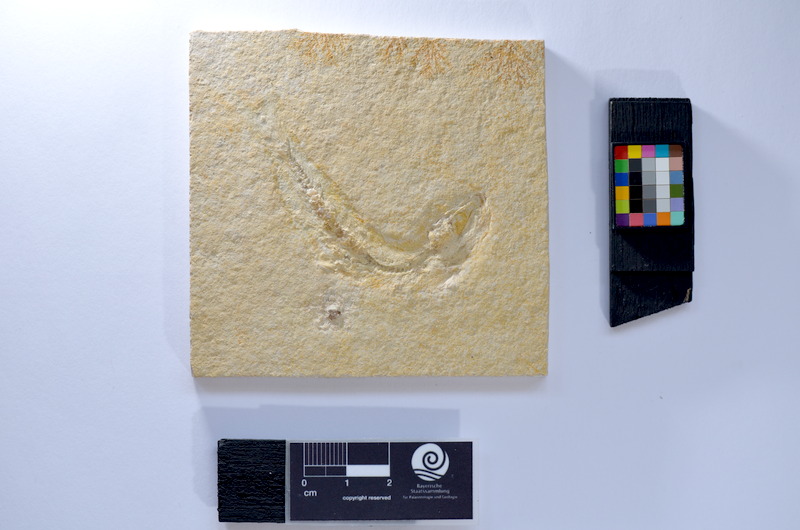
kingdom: Animalia
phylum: Chordata
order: Salmoniformes
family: Orthogonikleithridae
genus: Leptolepides
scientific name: Leptolepides sprattiformis
